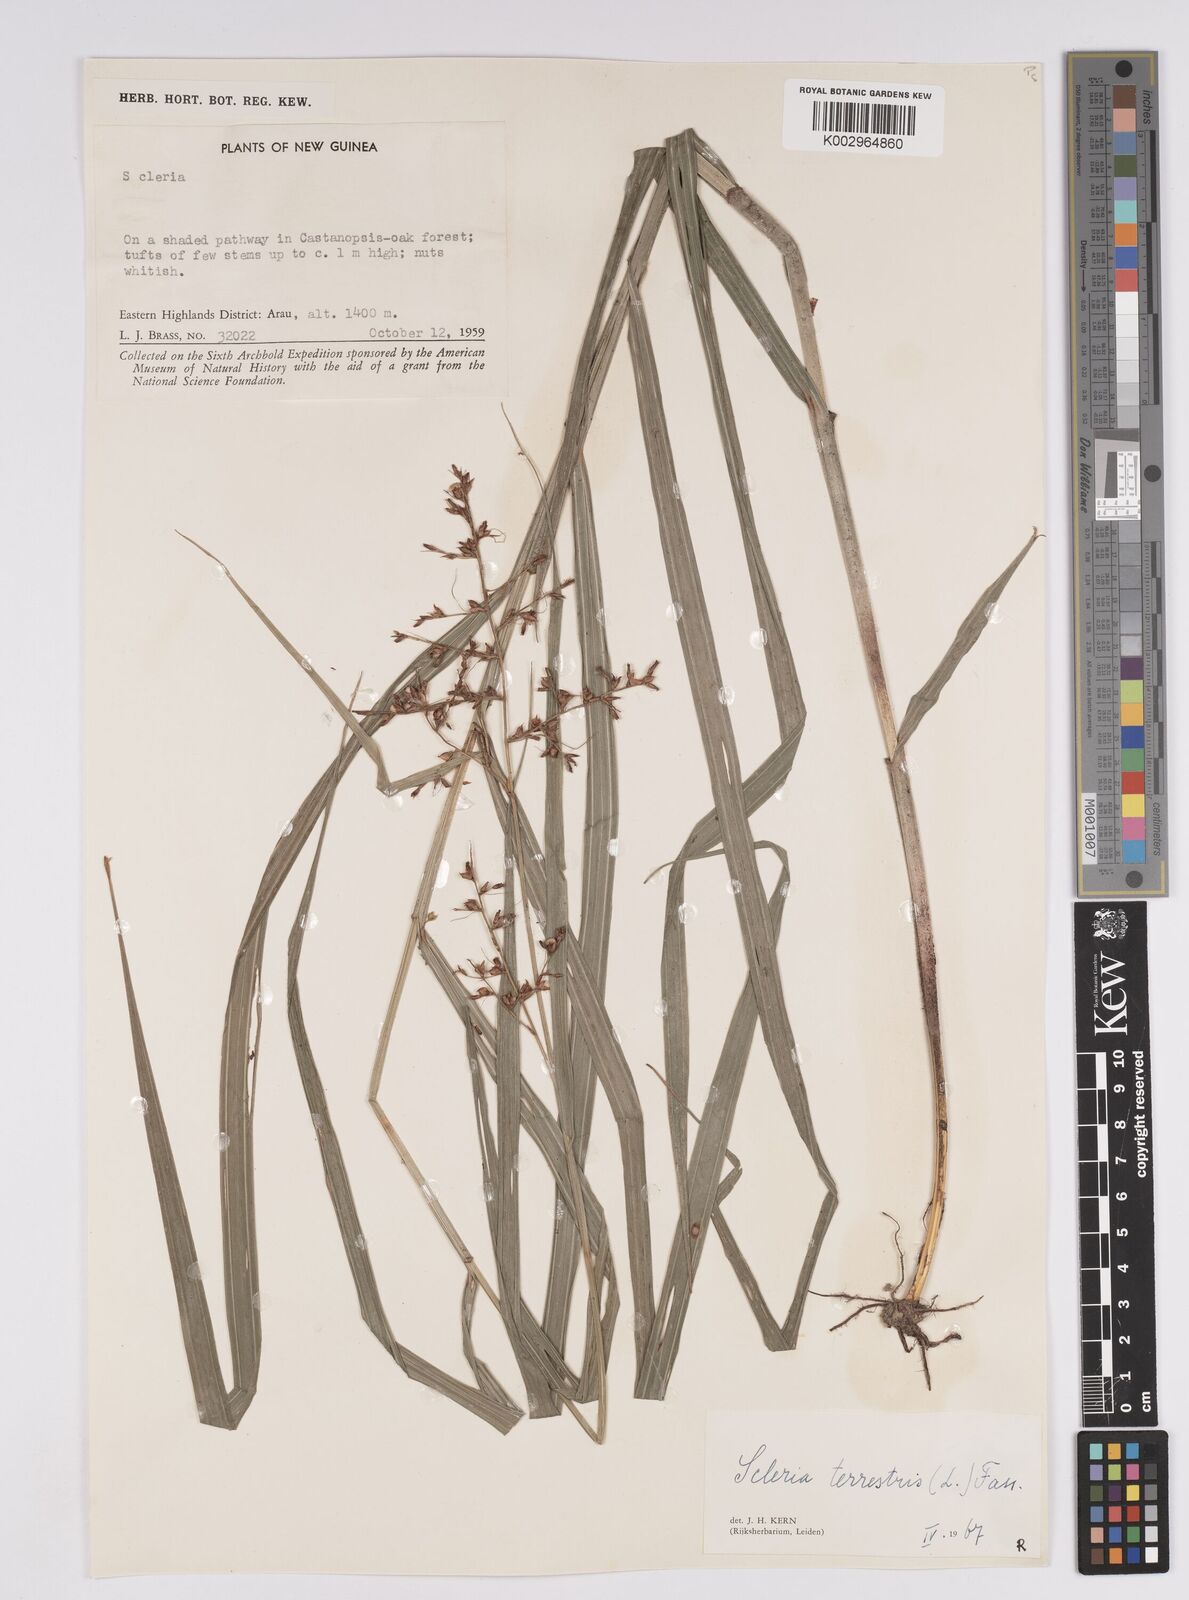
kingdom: Plantae
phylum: Tracheophyta
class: Liliopsida
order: Poales
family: Cyperaceae
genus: Scleria
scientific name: Scleria terrestris
